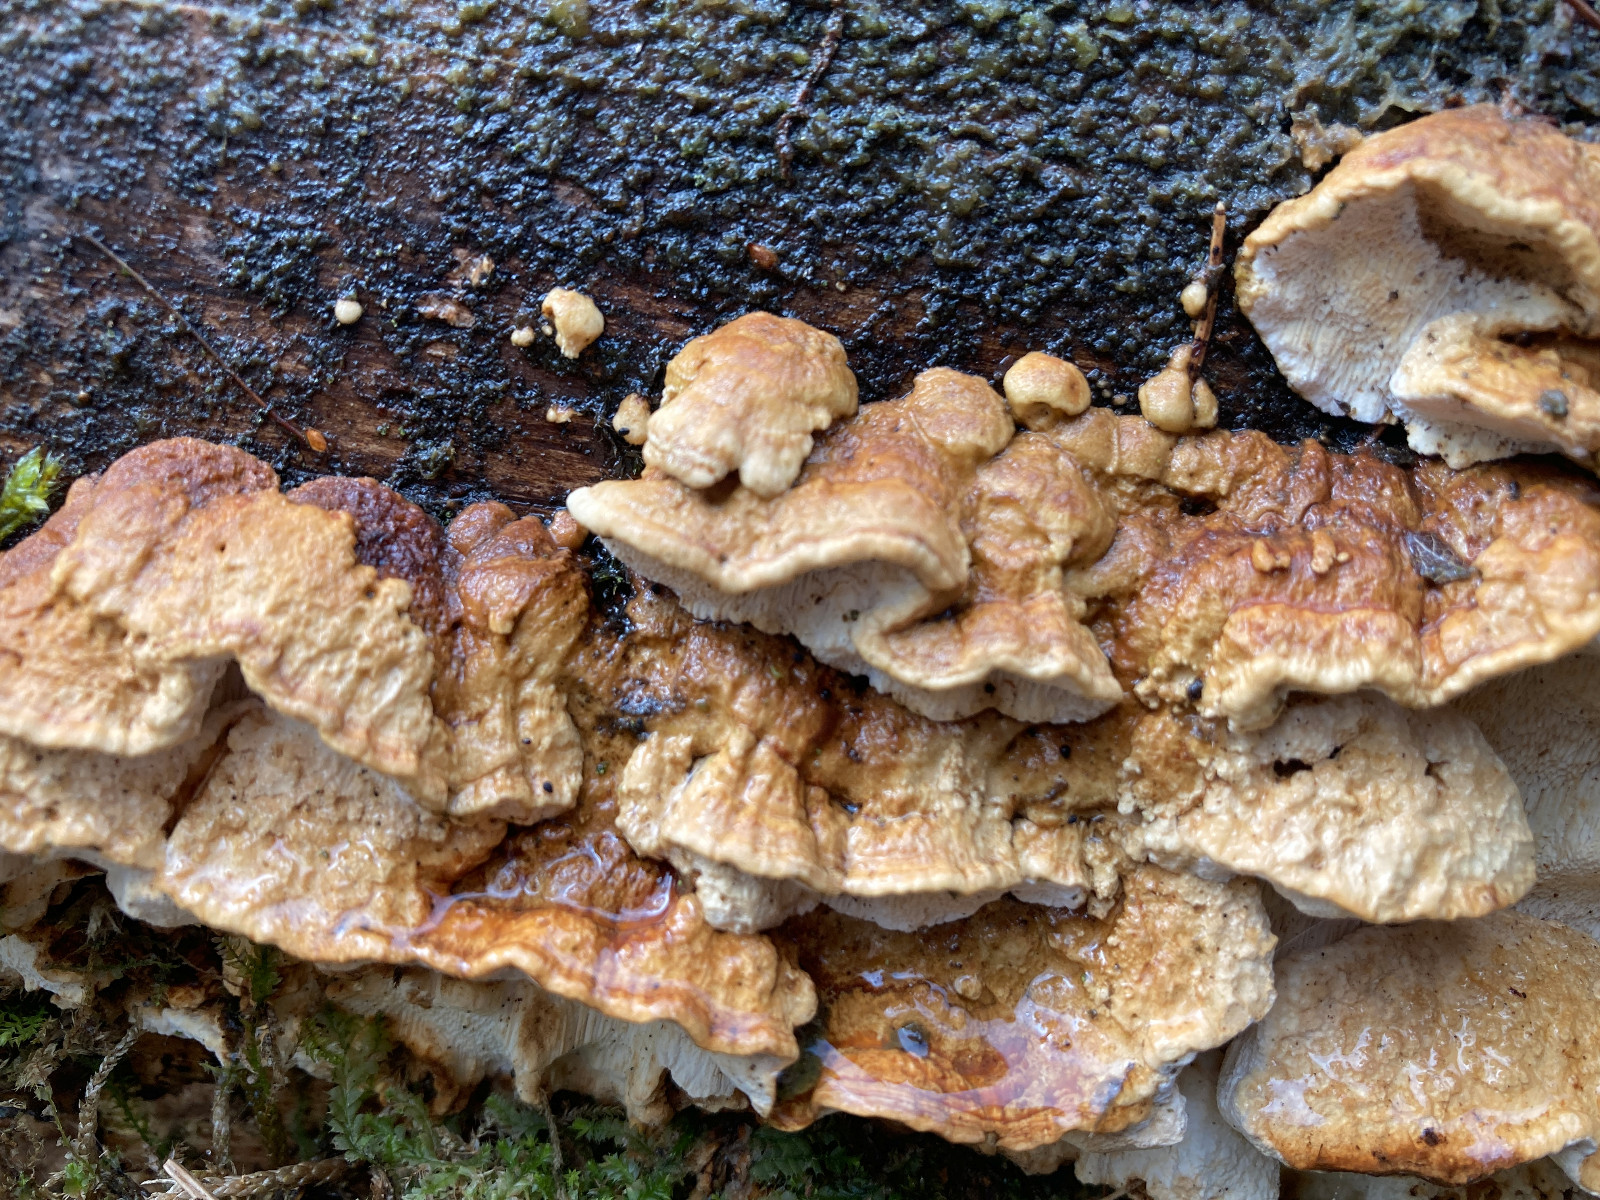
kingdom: Fungi
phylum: Basidiomycota
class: Agaricomycetes
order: Polyporales
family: Fomitopsidaceae
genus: Neoantrodia
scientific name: Neoantrodia serialis
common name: række-sejporesvamp
